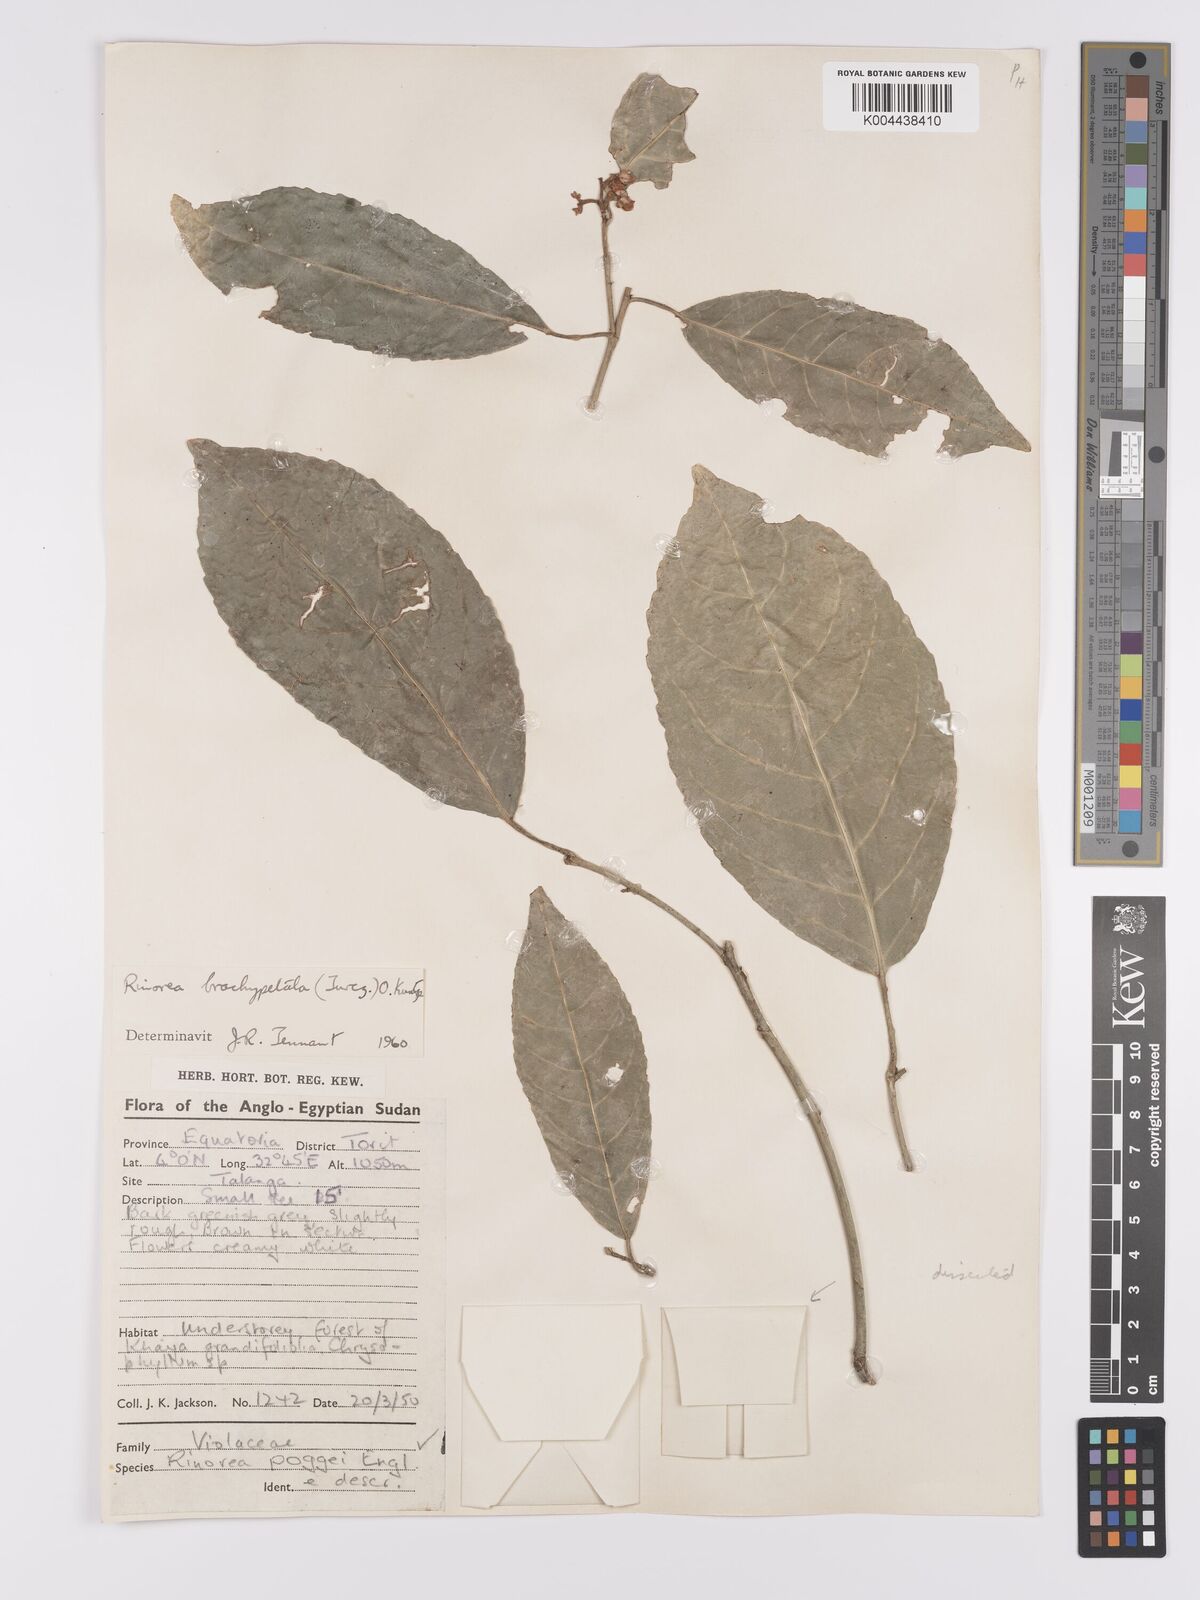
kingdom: Plantae
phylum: Tracheophyta
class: Magnoliopsida
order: Malpighiales
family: Violaceae
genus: Rinorea
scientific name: Rinorea brachypetala
